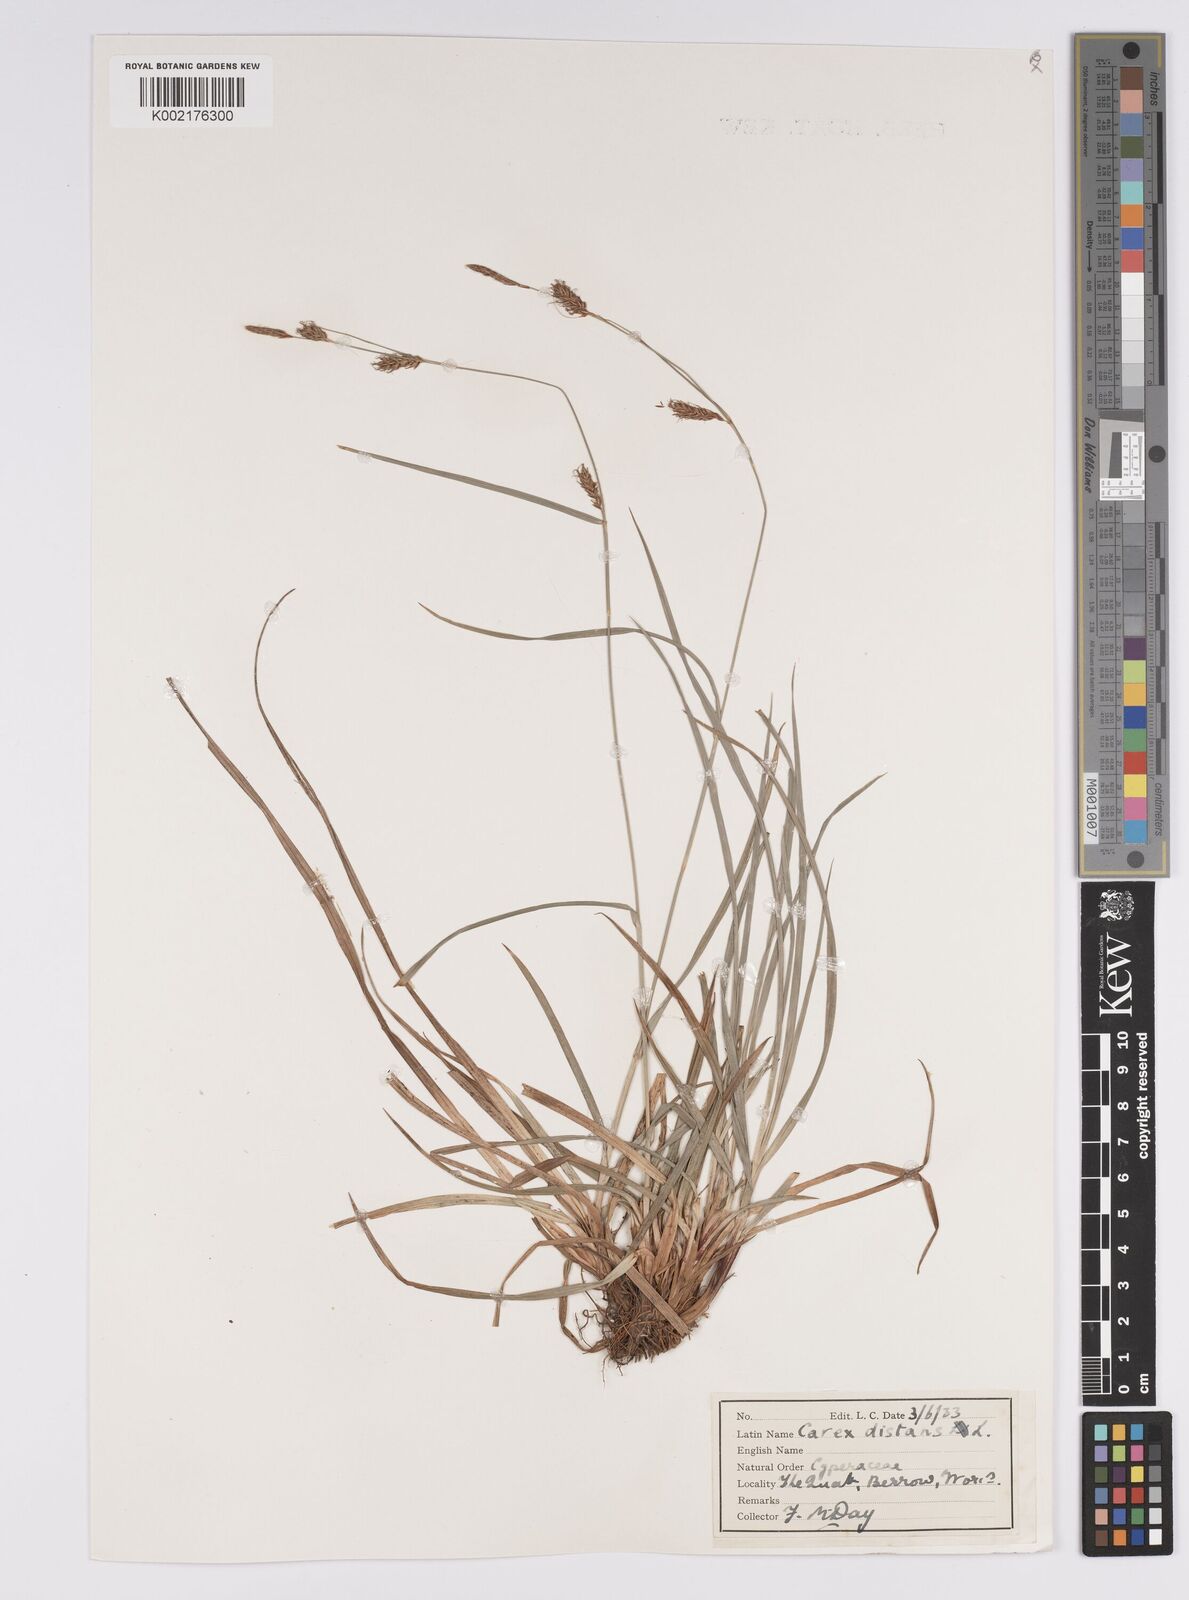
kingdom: Plantae
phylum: Tracheophyta
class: Liliopsida
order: Poales
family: Cyperaceae
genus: Carex
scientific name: Carex distans
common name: Distant sedge
